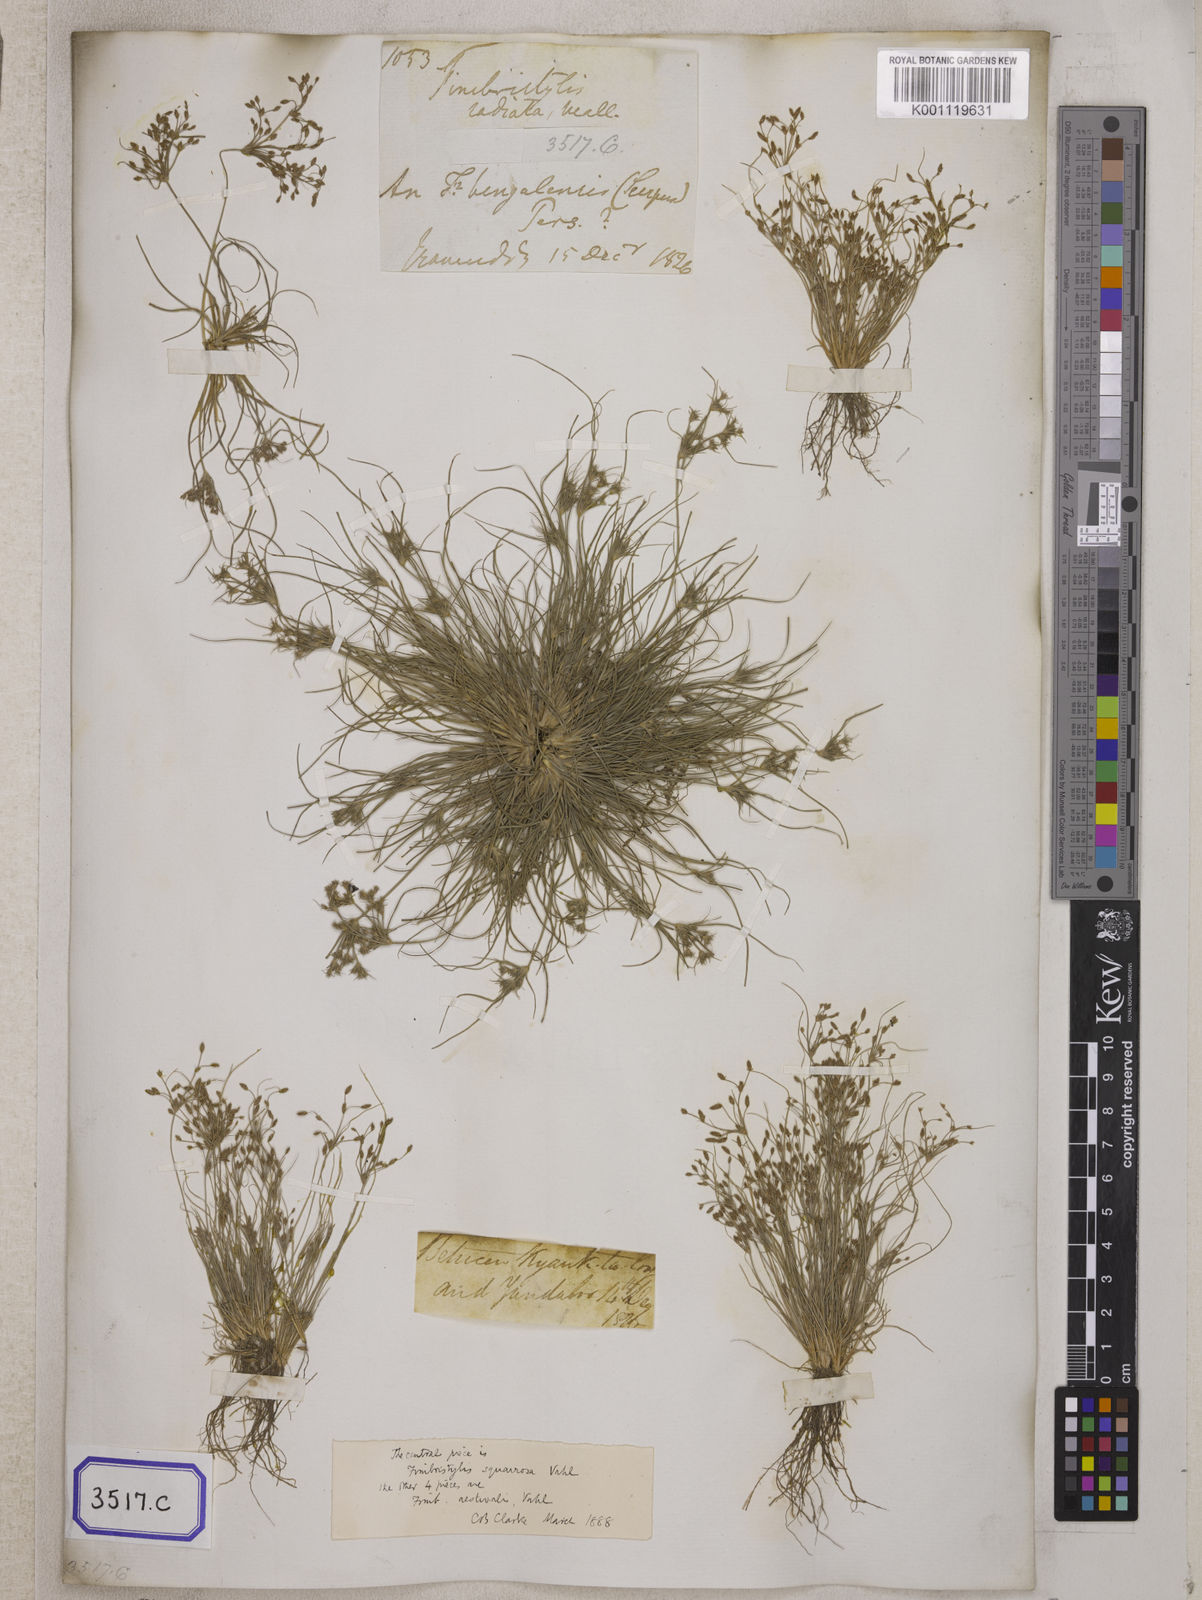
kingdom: Plantae
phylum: Tracheophyta
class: Liliopsida
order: Poales
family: Cyperaceae
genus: Fimbristylis
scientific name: Fimbristylis
